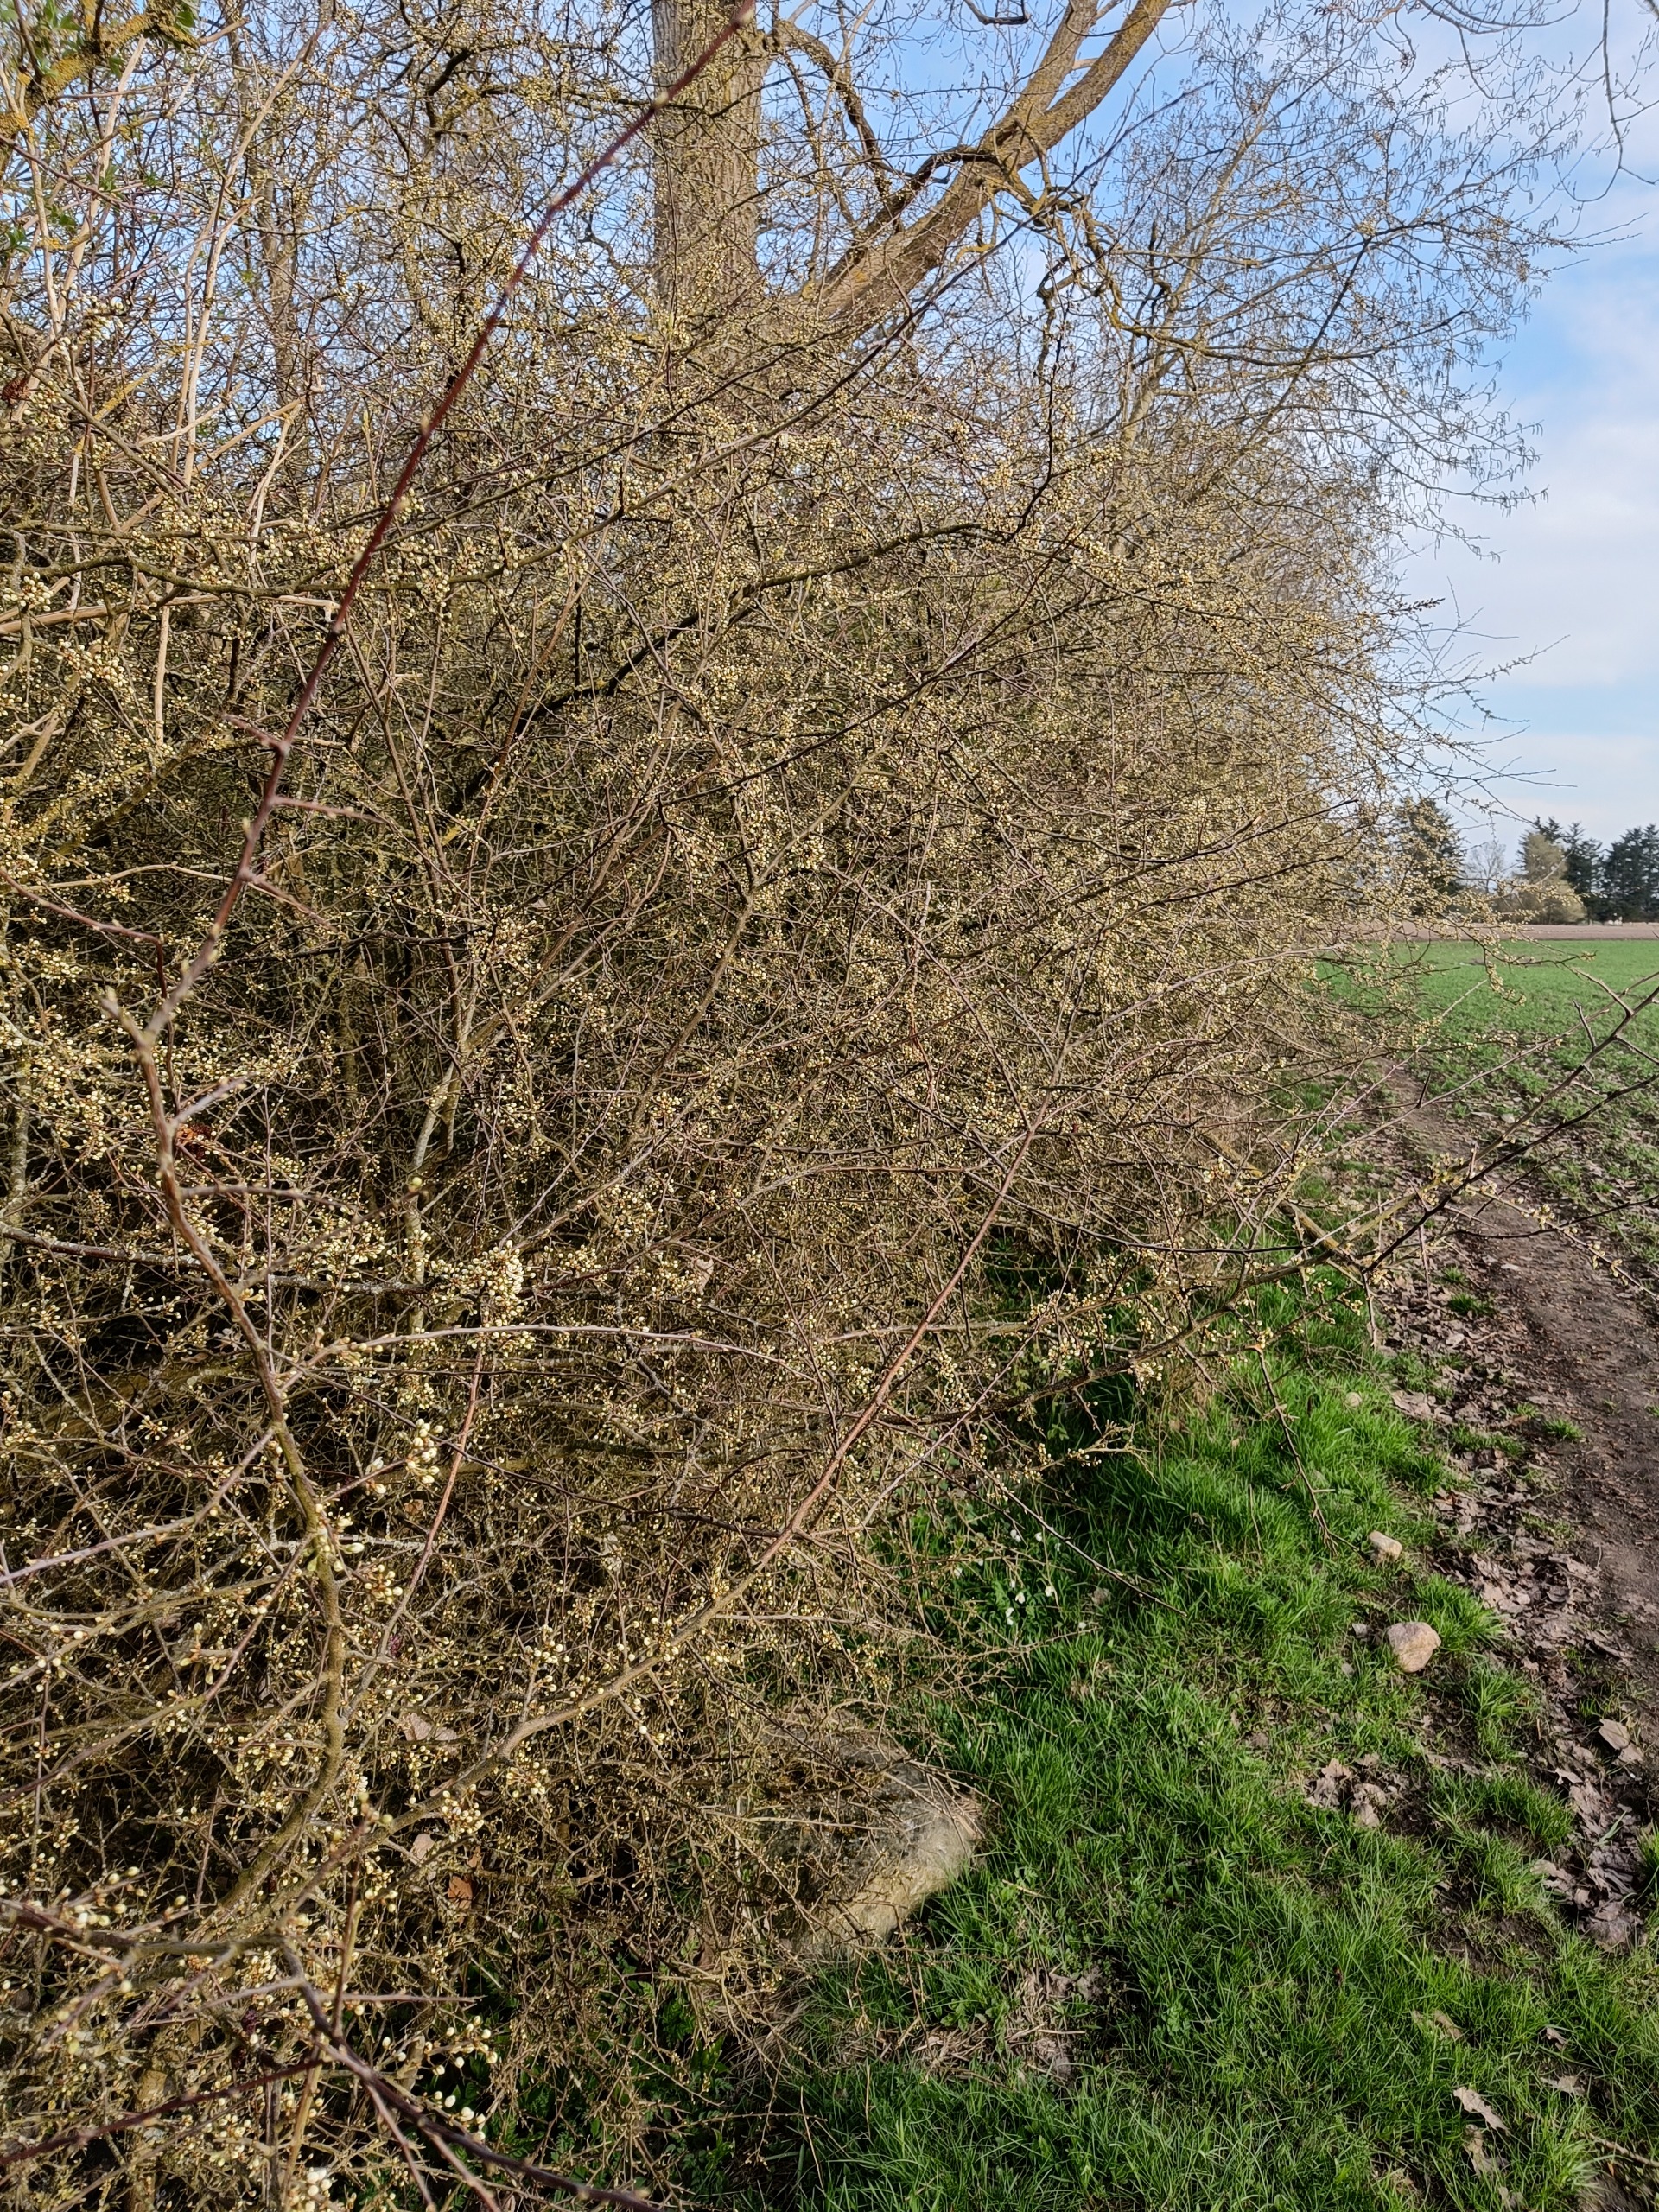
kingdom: Plantae
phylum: Tracheophyta
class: Magnoliopsida
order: Rosales
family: Rosaceae
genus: Prunus
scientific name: Prunus spinosa
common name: Slåen
